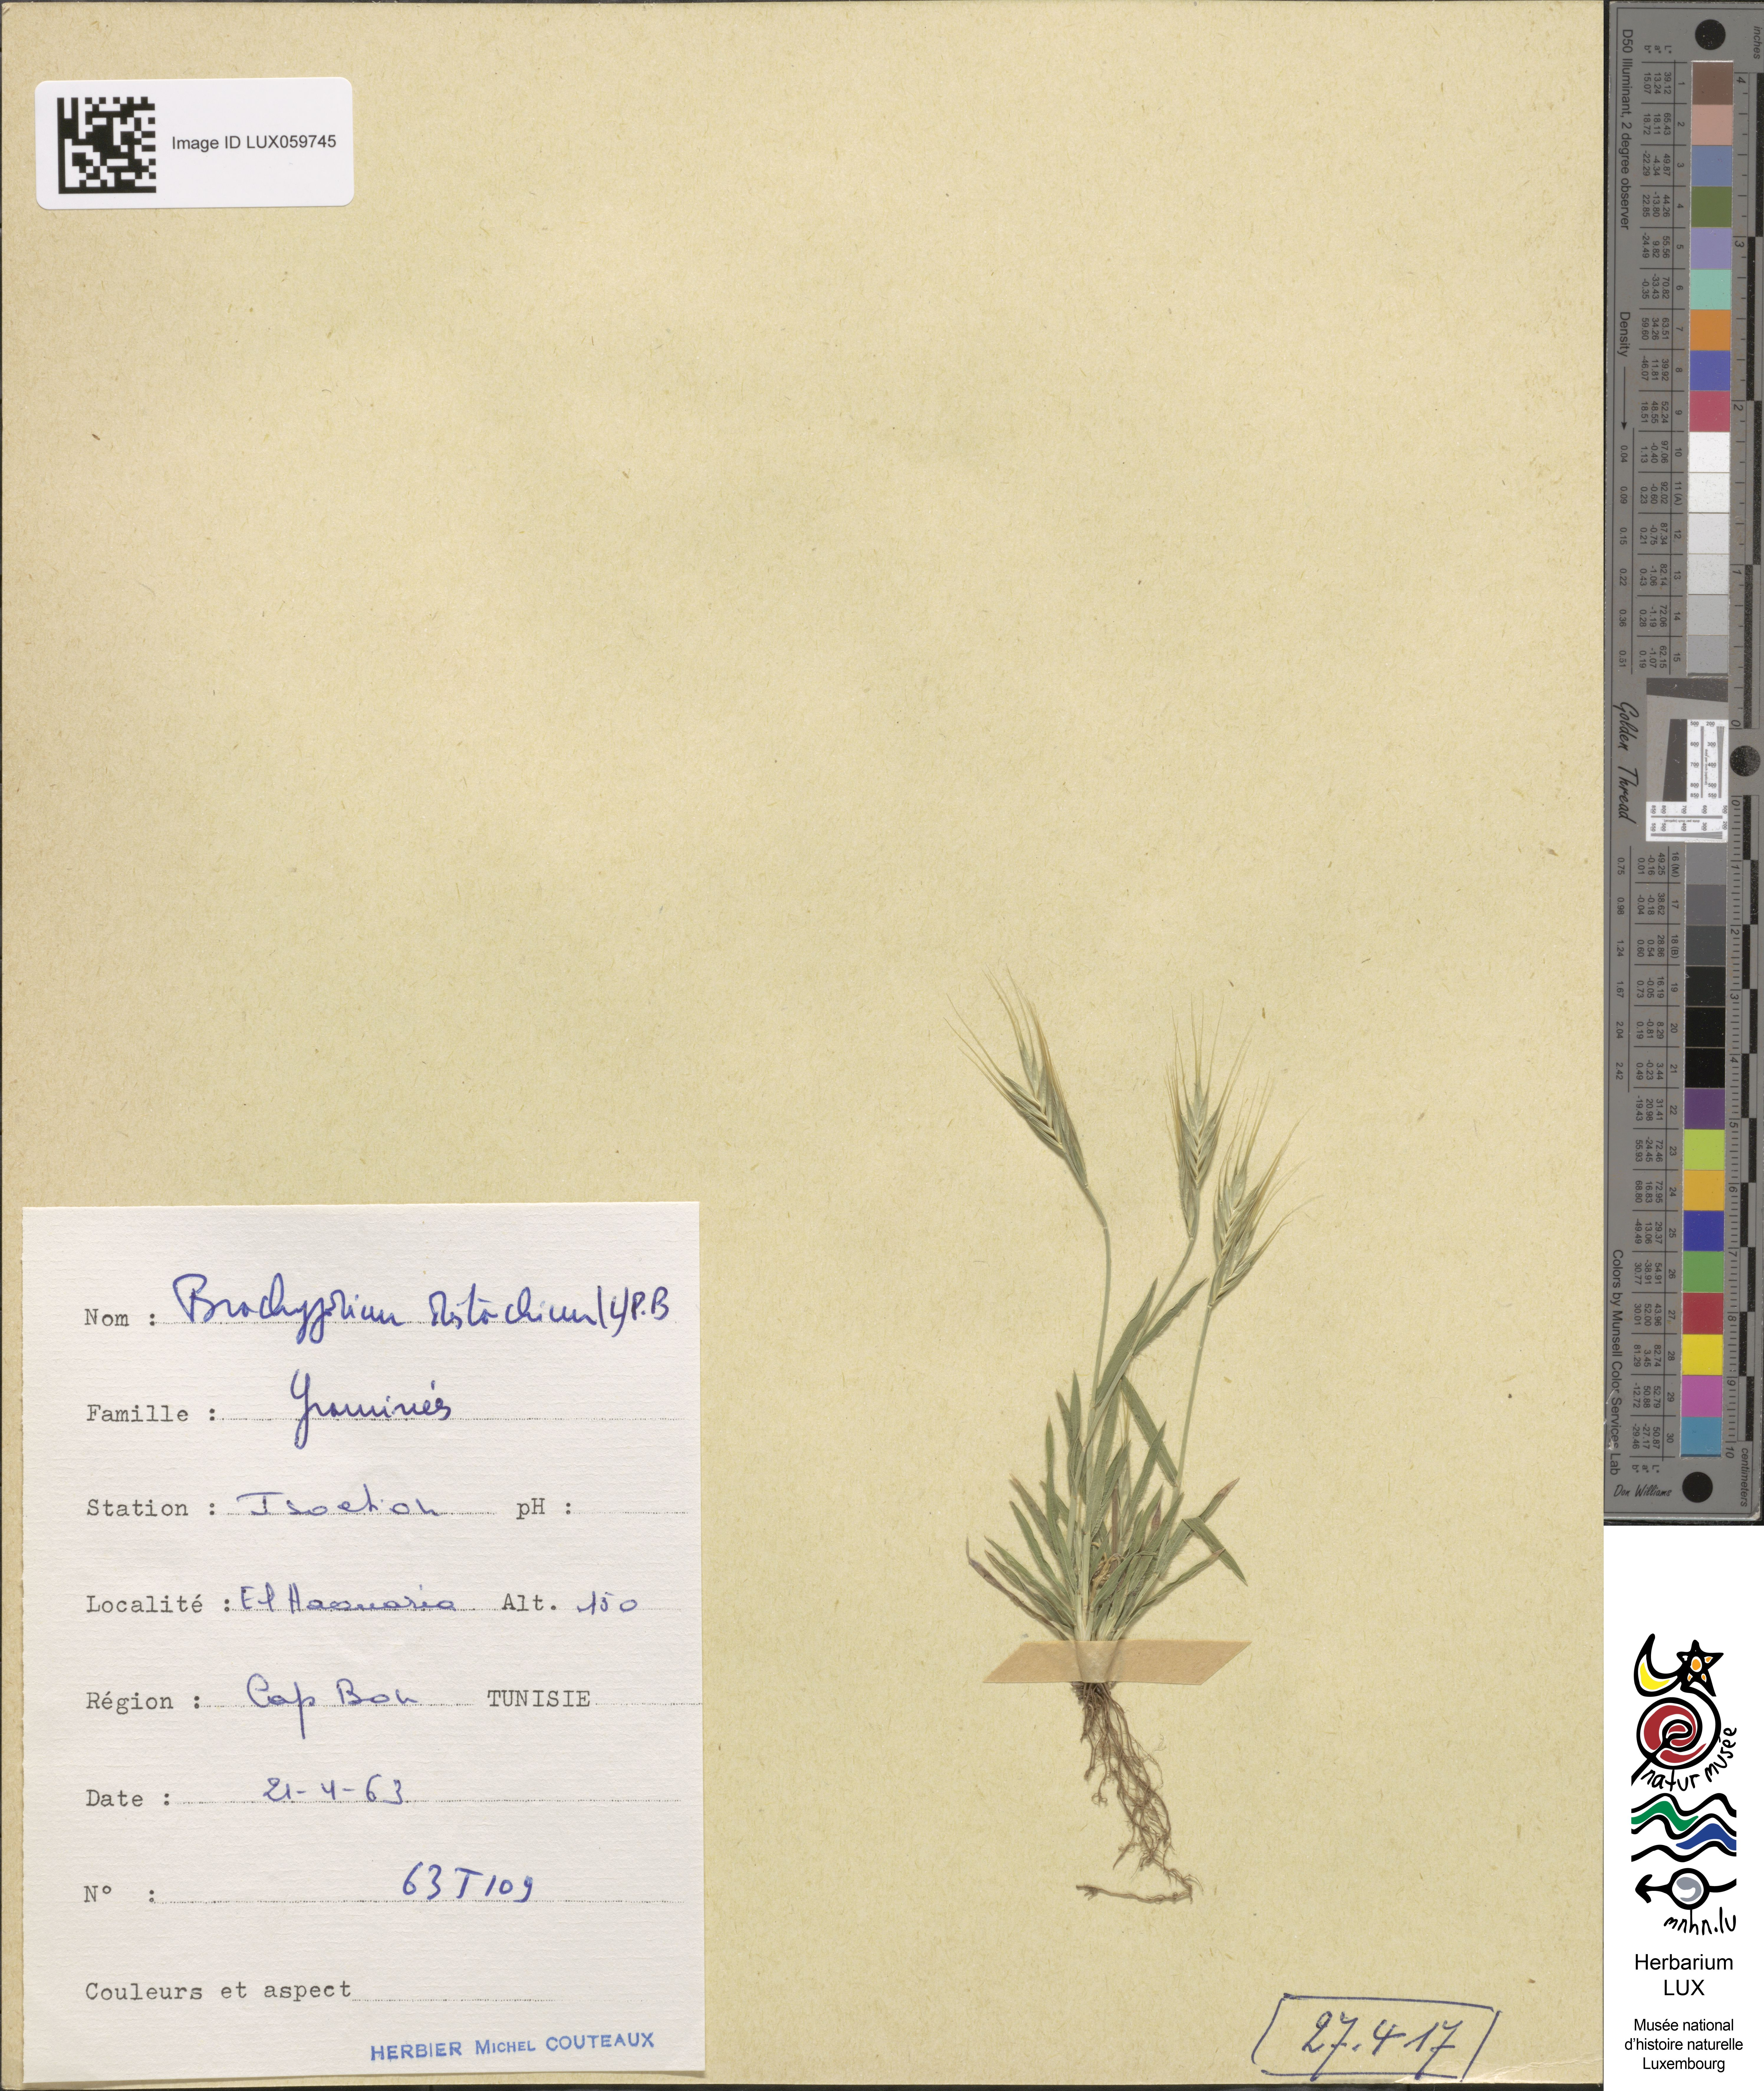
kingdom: Plantae
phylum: Tracheophyta
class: Liliopsida
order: Poales
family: Poaceae
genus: Brachypodium
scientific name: Brachypodium distachyon
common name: Stiff brome
